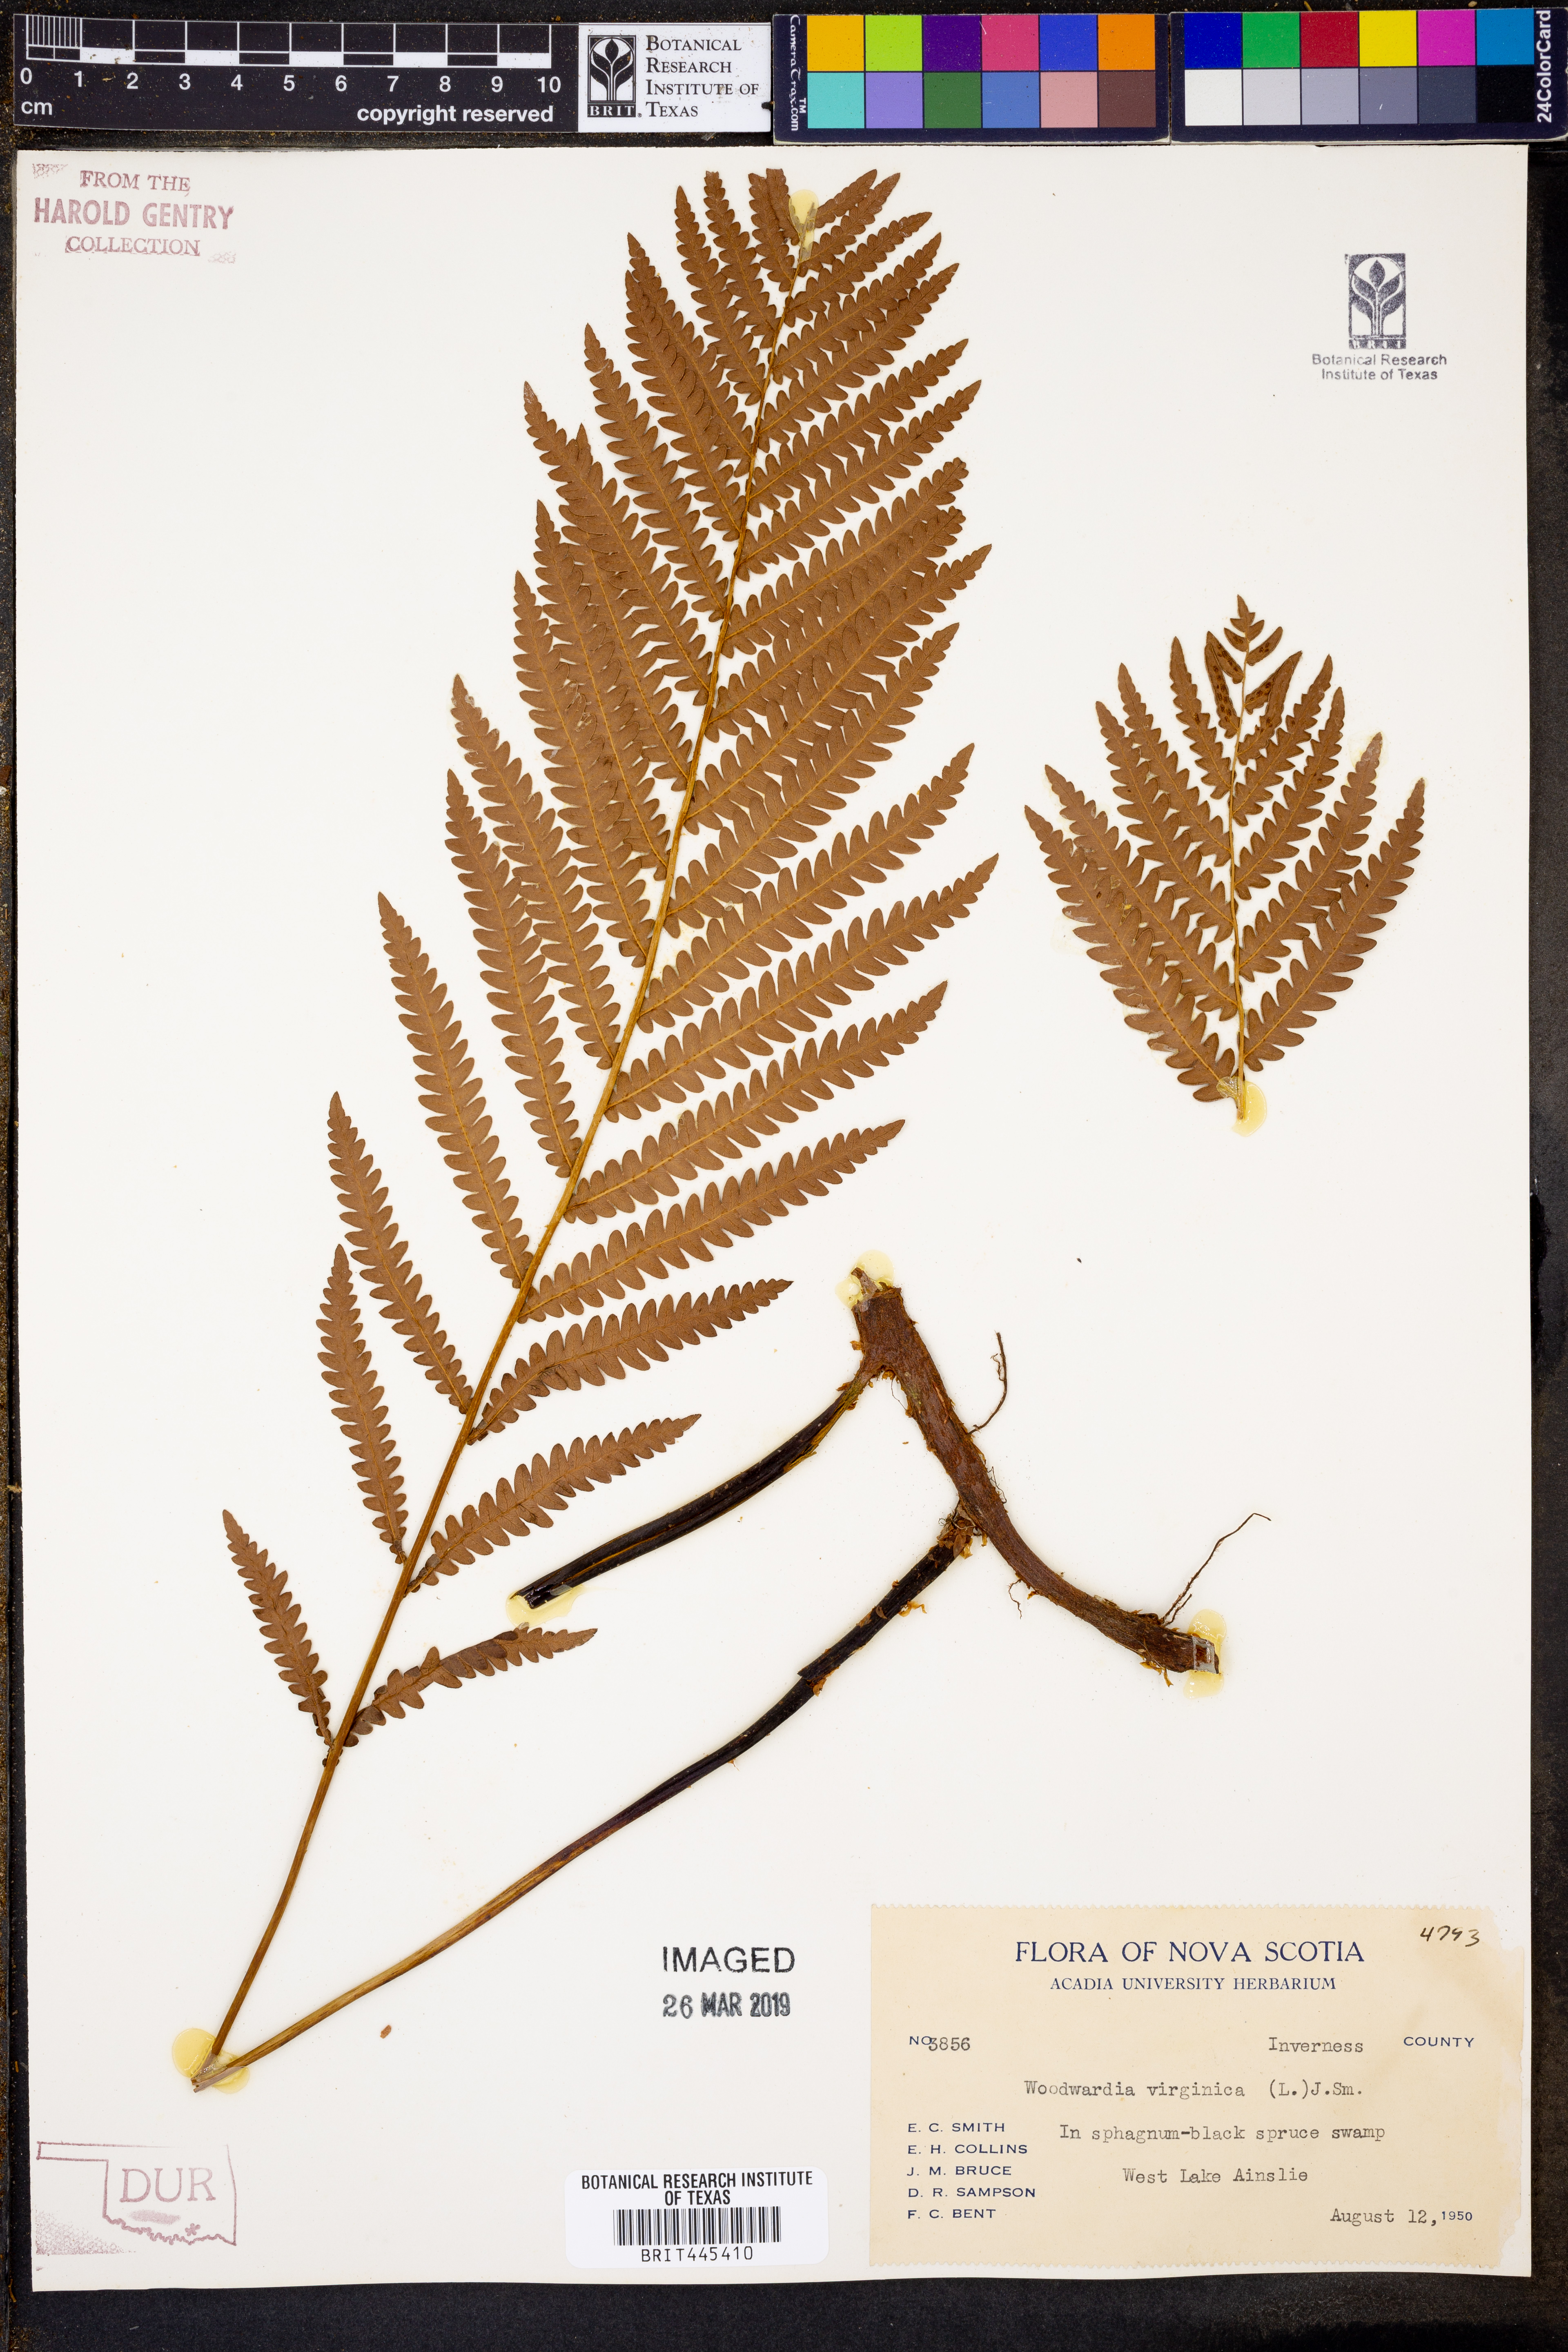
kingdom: Plantae
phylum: Tracheophyta
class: Polypodiopsida
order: Polypodiales
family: Blechnaceae
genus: Anchistea
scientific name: Anchistea virginica
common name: Virginia chain fern
